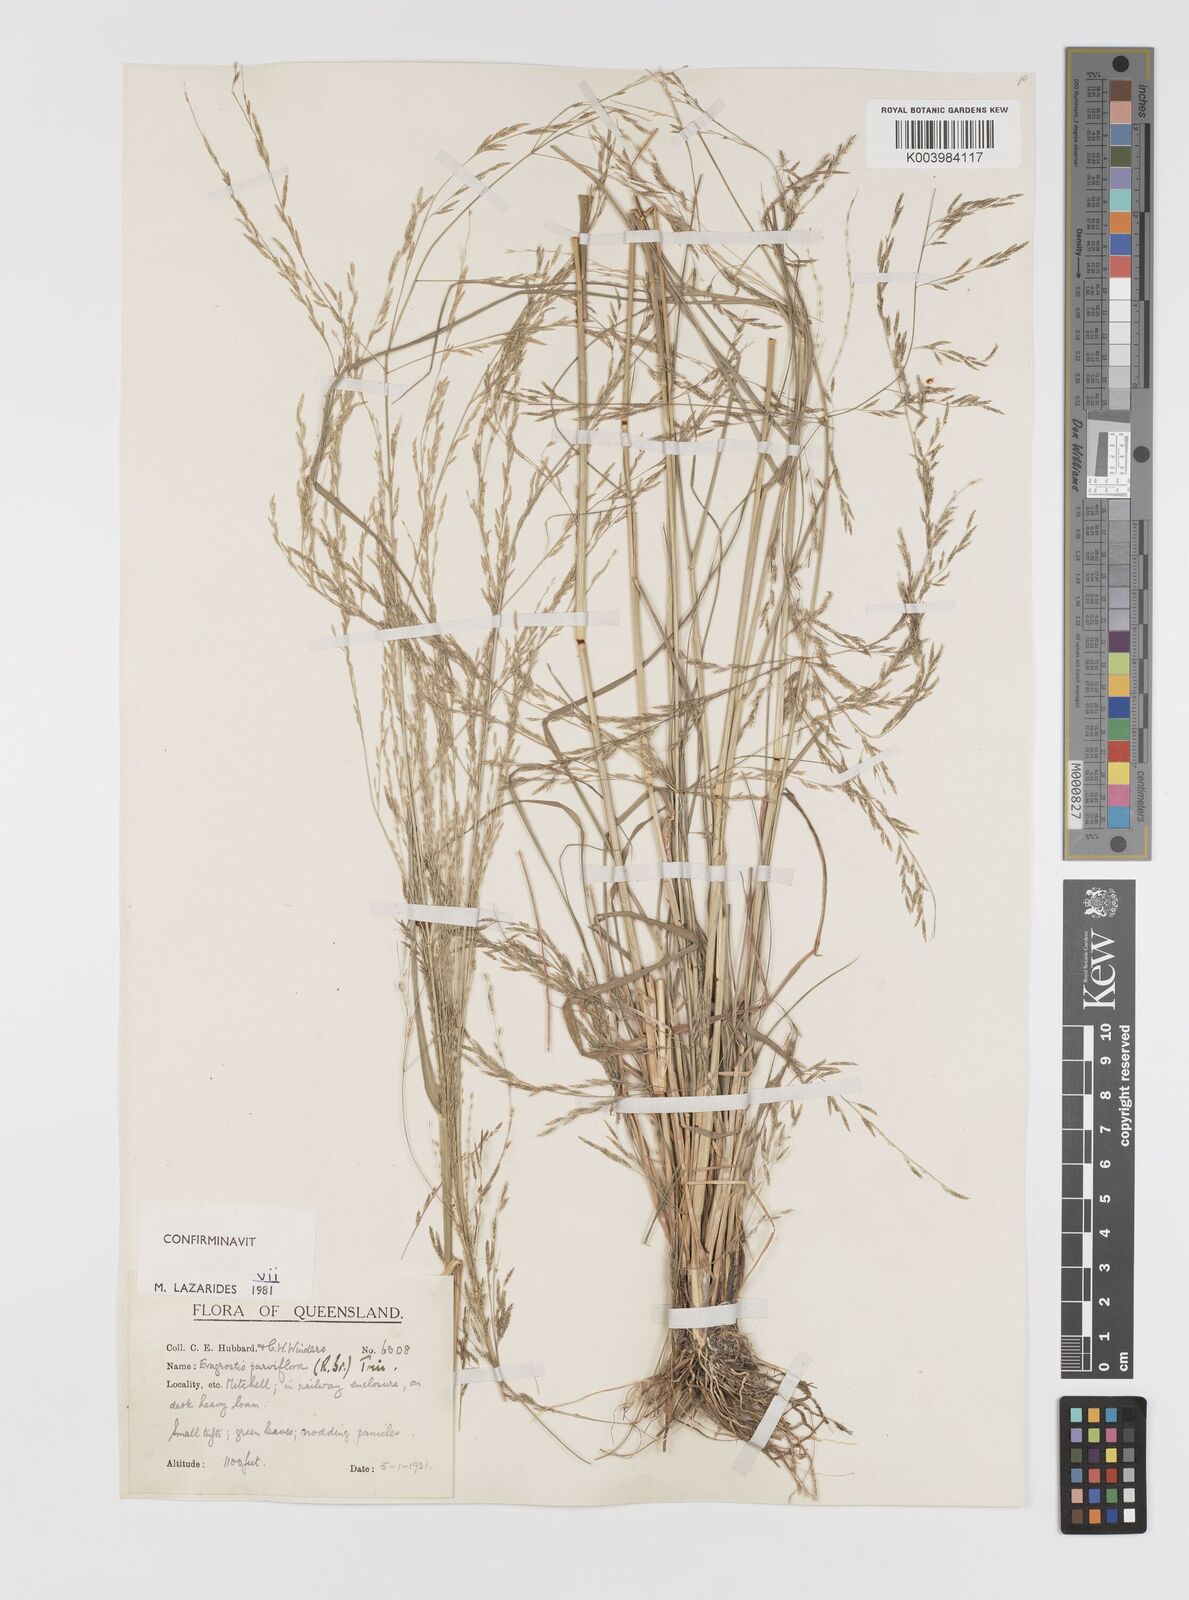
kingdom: Plantae
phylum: Tracheophyta
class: Liliopsida
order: Poales
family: Poaceae
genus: Eragrostis
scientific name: Eragrostis parviflora
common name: Weeping love-grass
